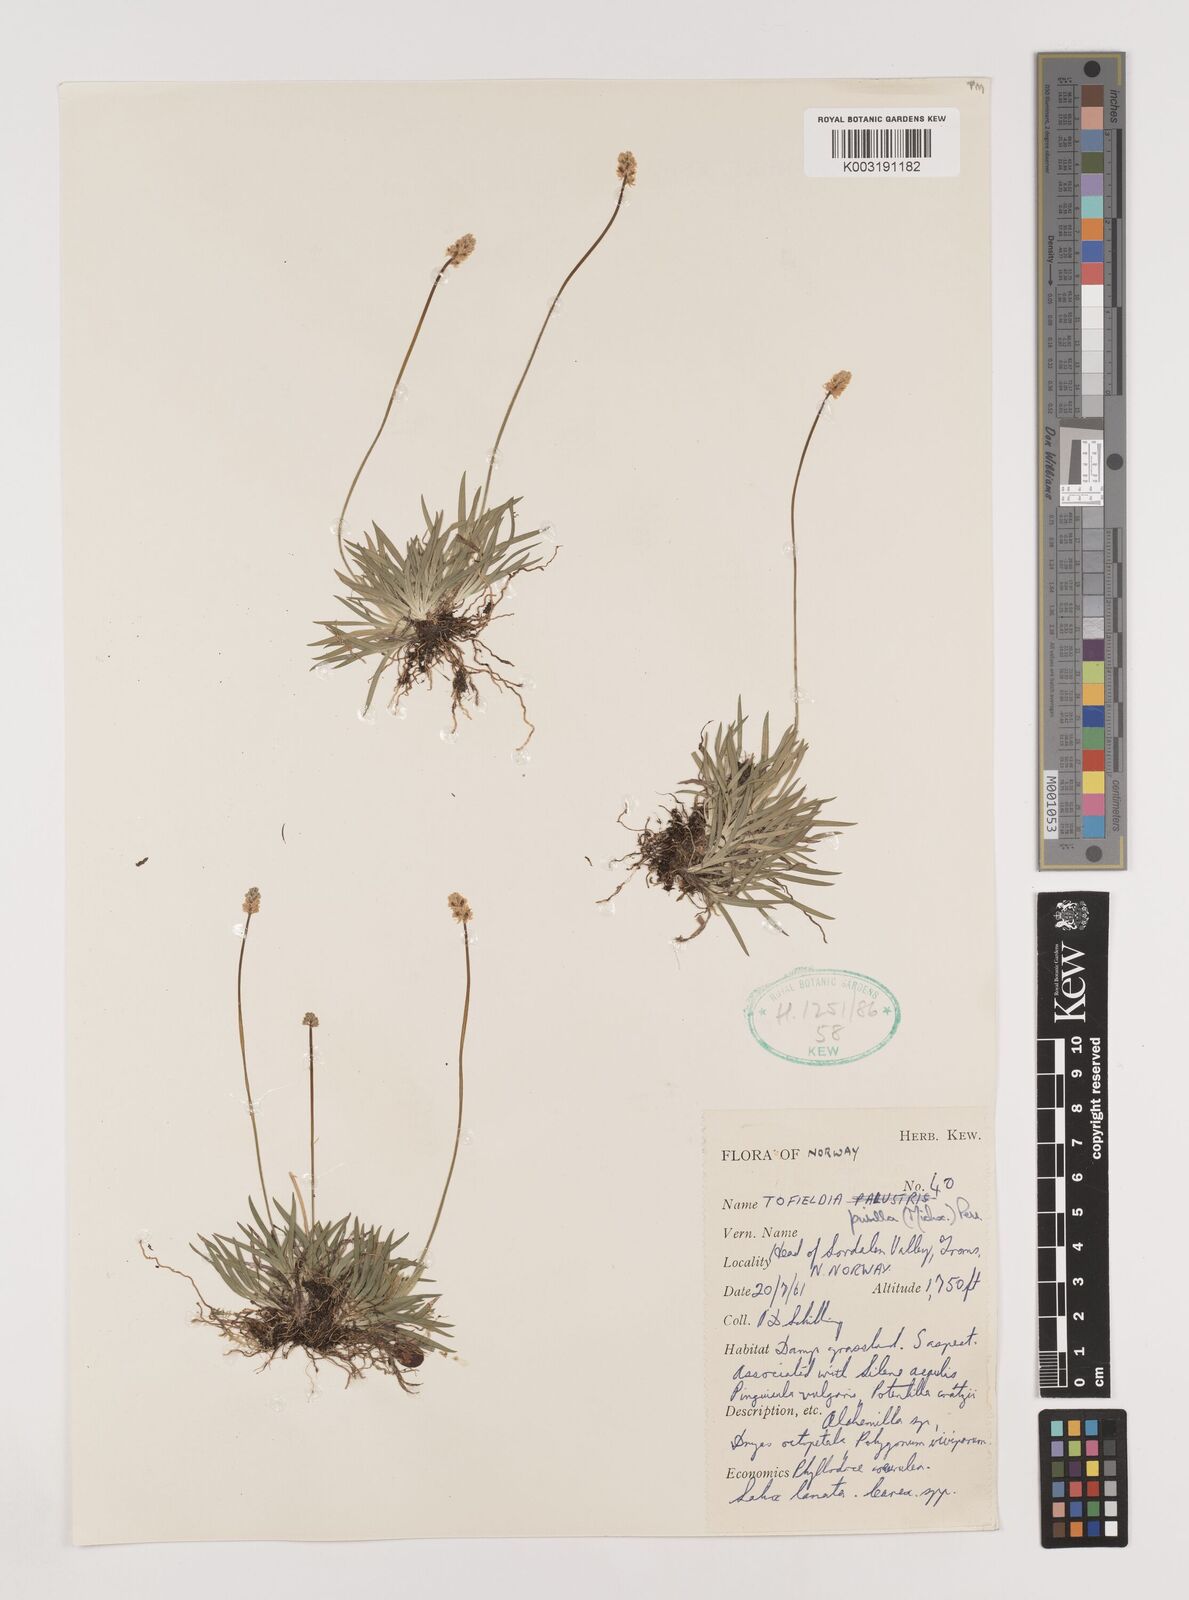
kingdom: Plantae
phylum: Tracheophyta
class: Liliopsida
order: Alismatales
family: Tofieldiaceae
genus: Tofieldia
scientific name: Tofieldia pusilla
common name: Scottish false asphodel
